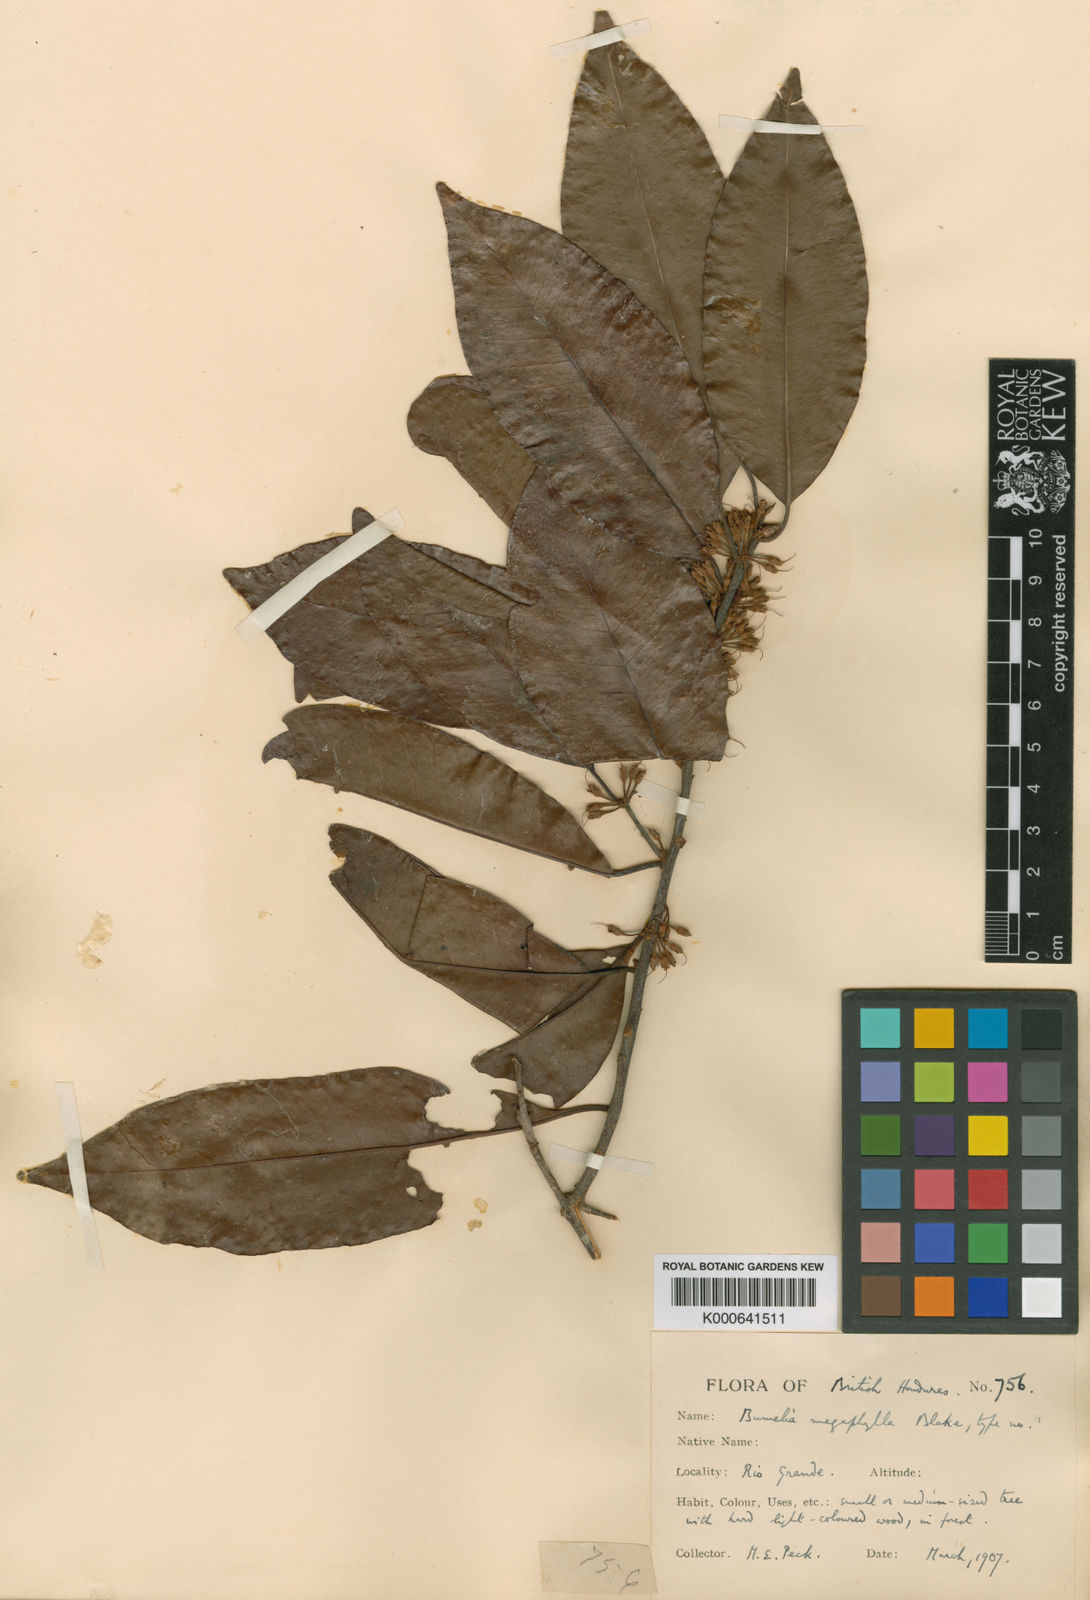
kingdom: Plantae
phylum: Tracheophyta
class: Magnoliopsida
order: Ericales
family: Sapotaceae
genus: Sideroxylon
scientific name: Sideroxylon persimile
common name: Bumelia
